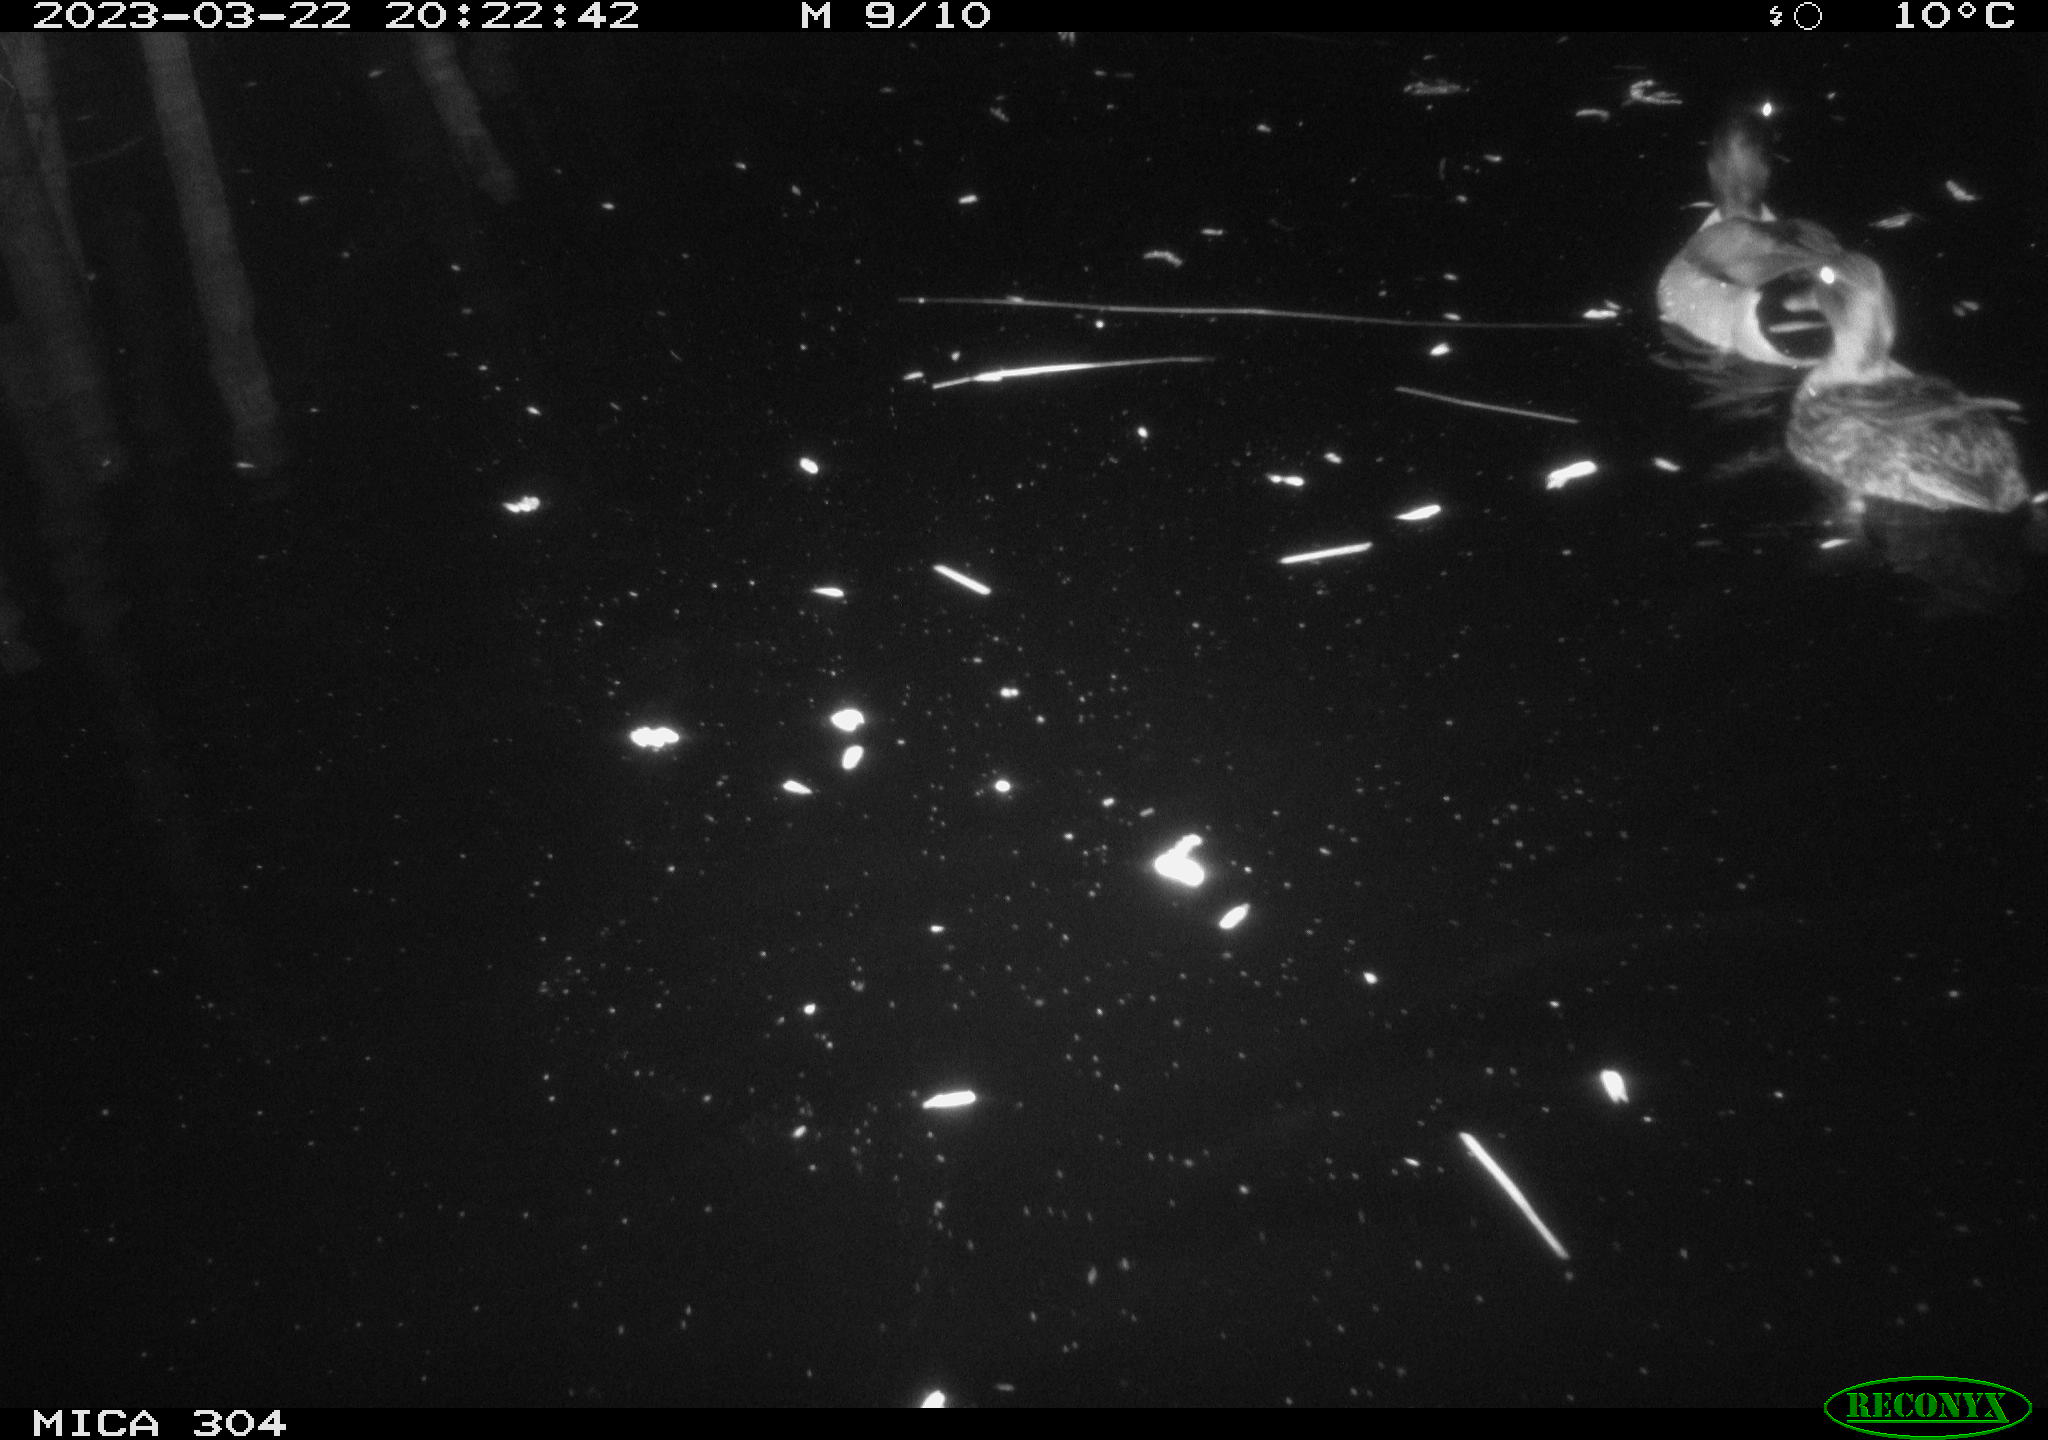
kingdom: Animalia
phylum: Chordata
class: Aves
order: Anseriformes
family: Anatidae
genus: Anas
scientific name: Anas
